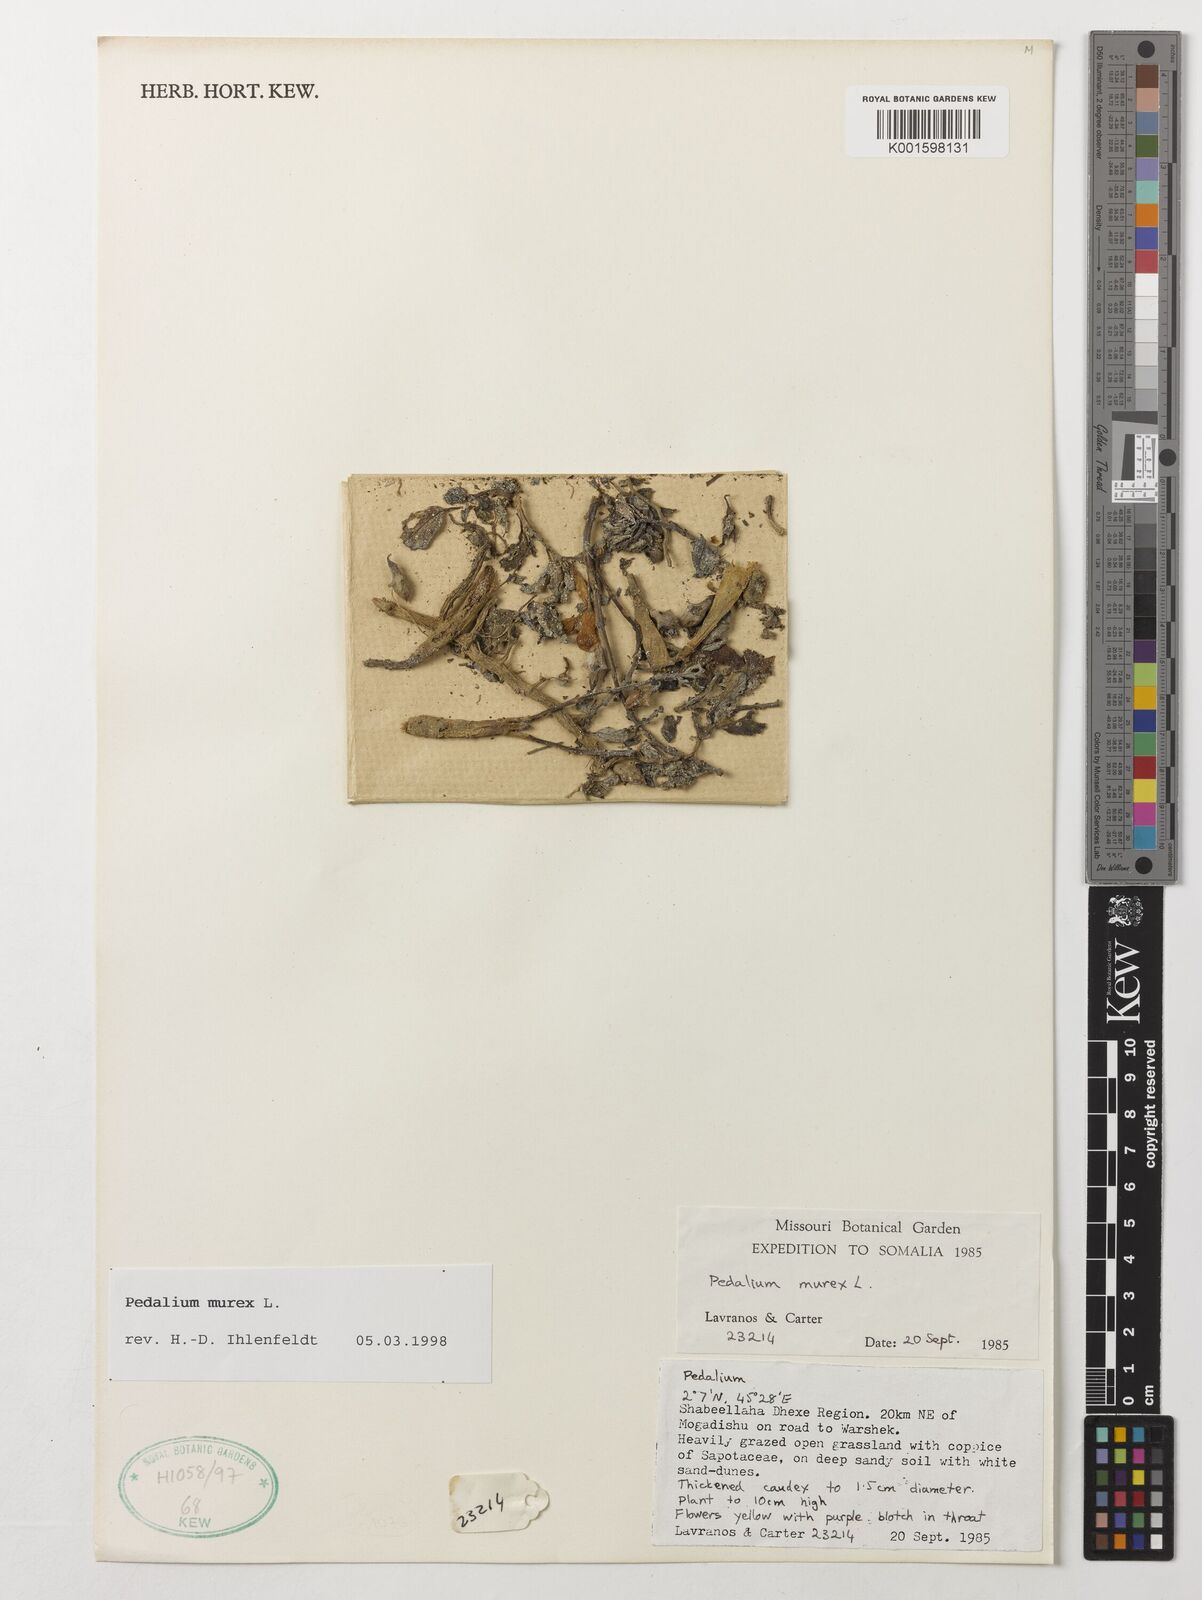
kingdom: Plantae
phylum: Tracheophyta
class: Magnoliopsida
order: Lamiales
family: Pedaliaceae
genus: Pedalium
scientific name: Pedalium murex
